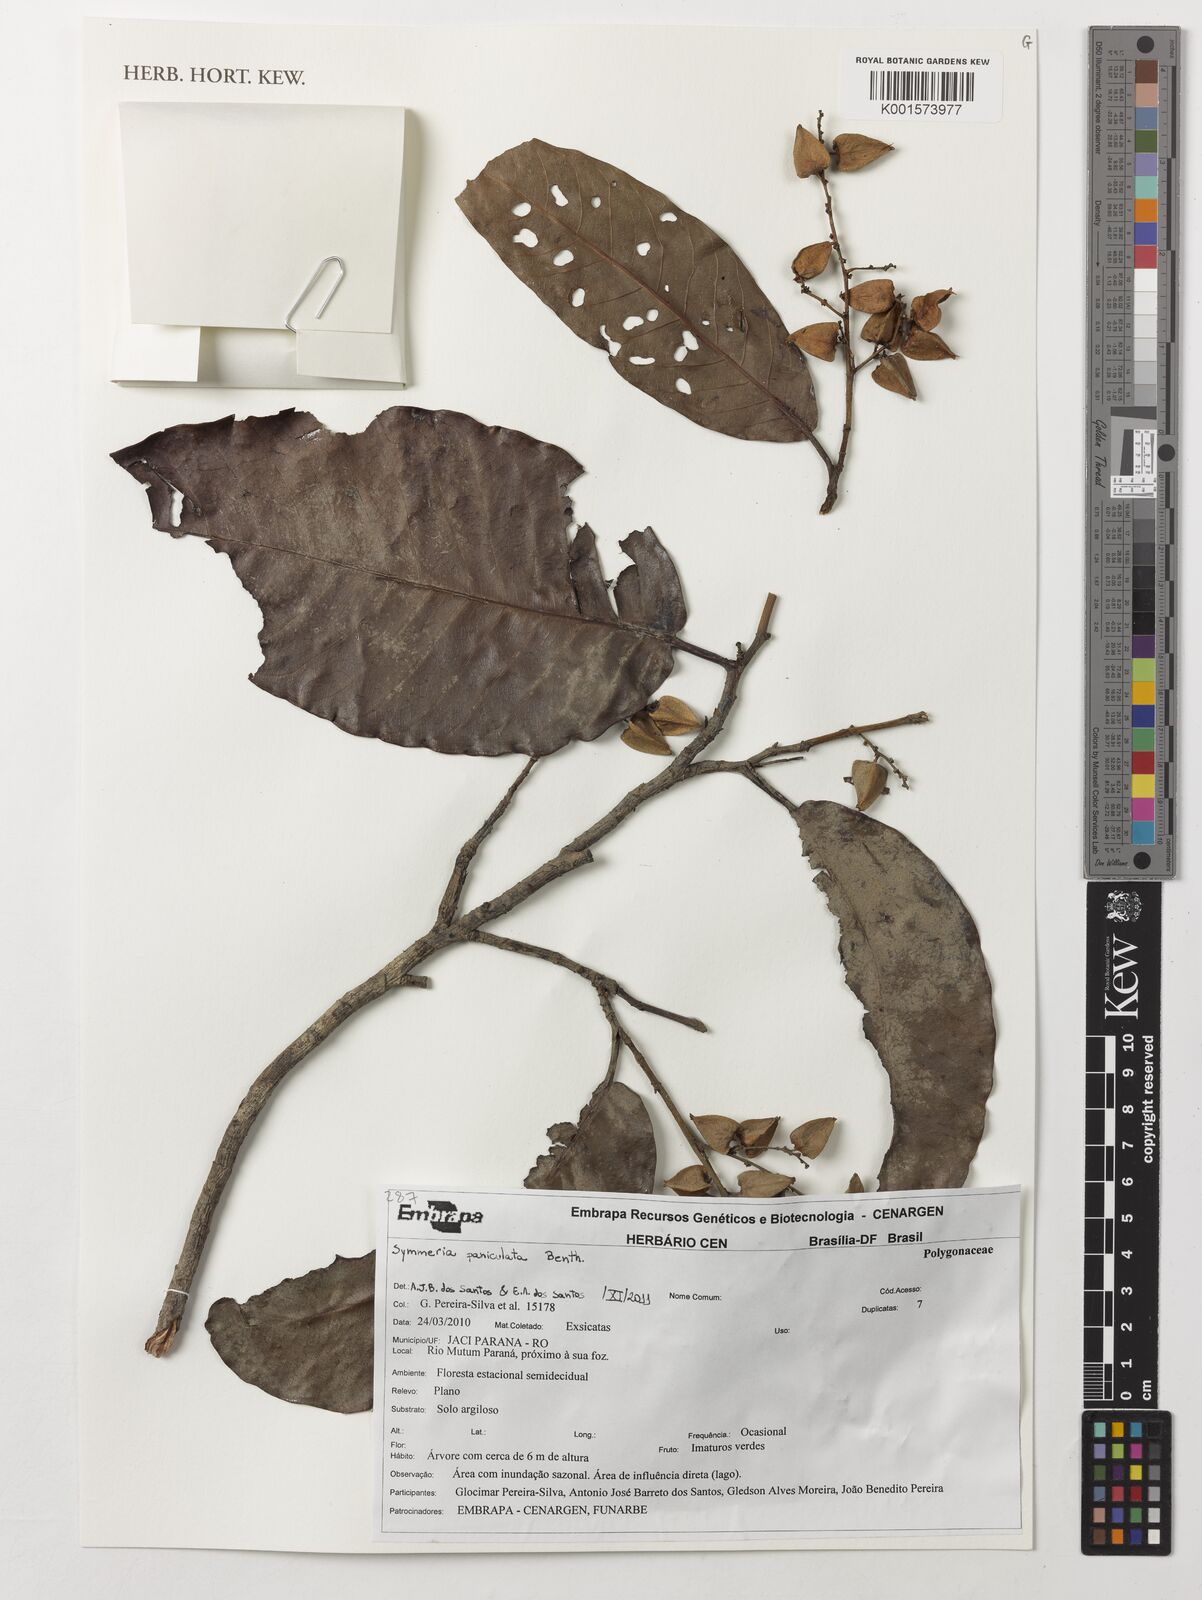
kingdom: Plantae
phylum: Tracheophyta
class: Magnoliopsida
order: Caryophyllales
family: Polygonaceae
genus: Symmeria
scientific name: Symmeria paniculata
